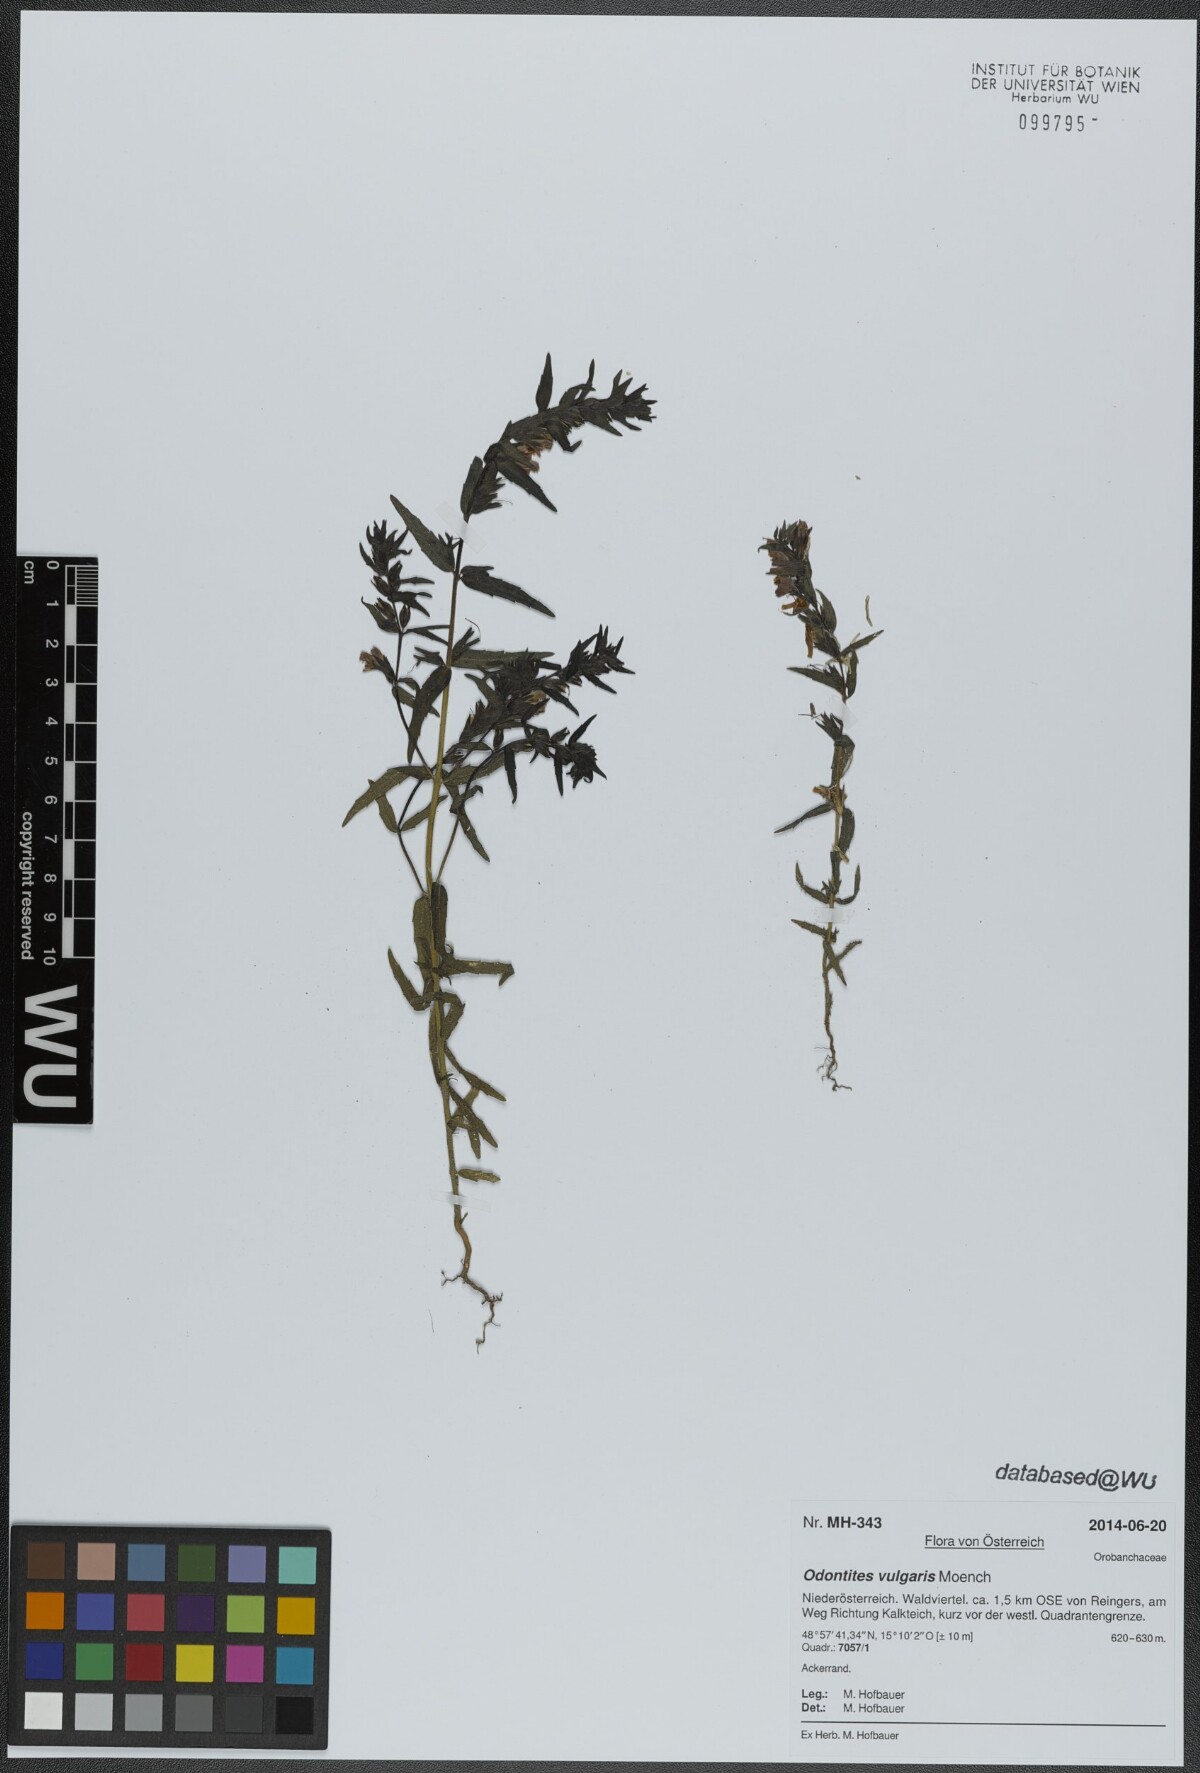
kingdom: Plantae
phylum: Tracheophyta
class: Magnoliopsida
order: Lamiales
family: Orobanchaceae
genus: Odontites
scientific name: Odontites vulgaris
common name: Broomrape
